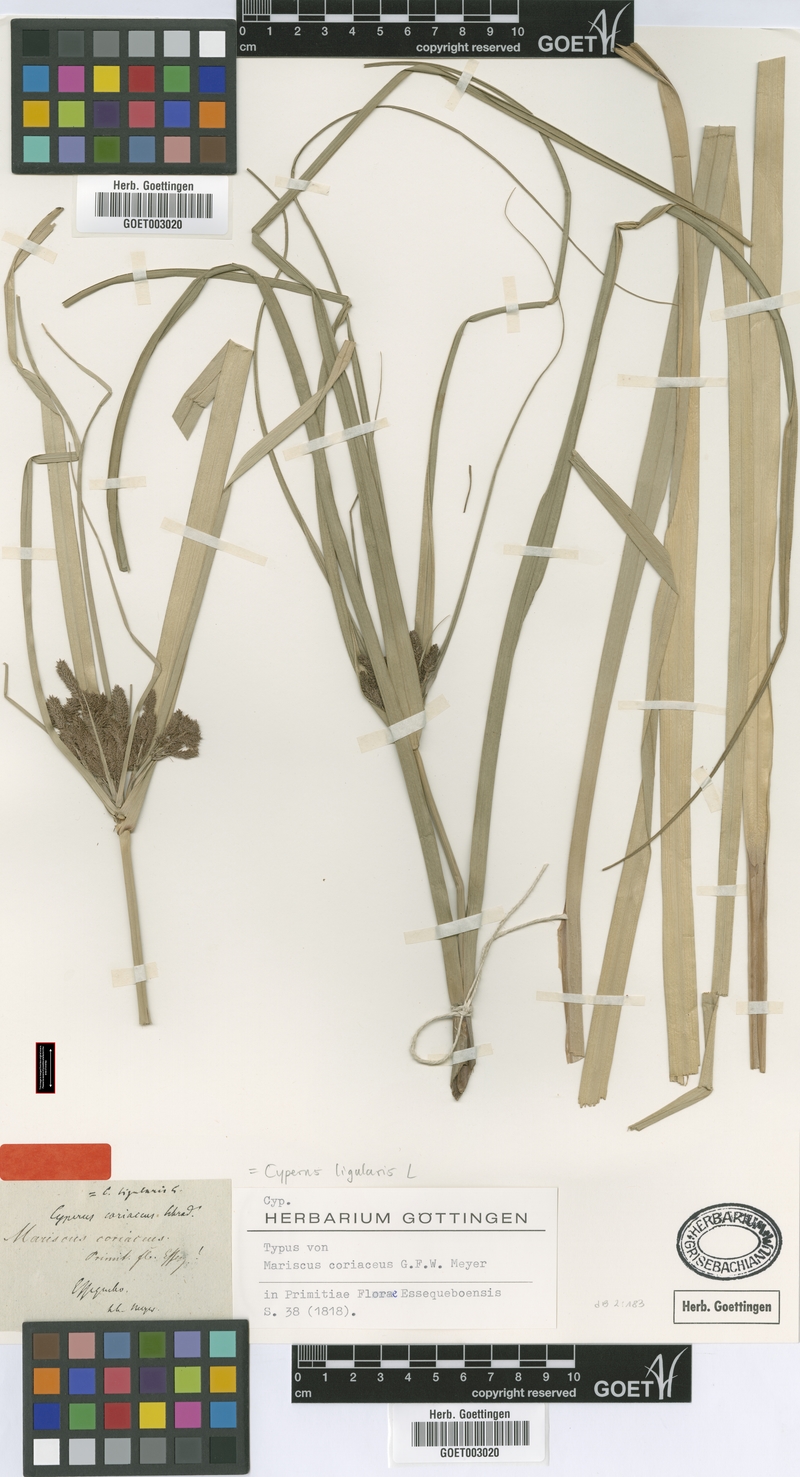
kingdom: Plantae
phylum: Tracheophyta
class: Liliopsida
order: Poales
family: Cyperaceae
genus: Cyperus
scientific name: Cyperus ligularis
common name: Swamp flat sedge
